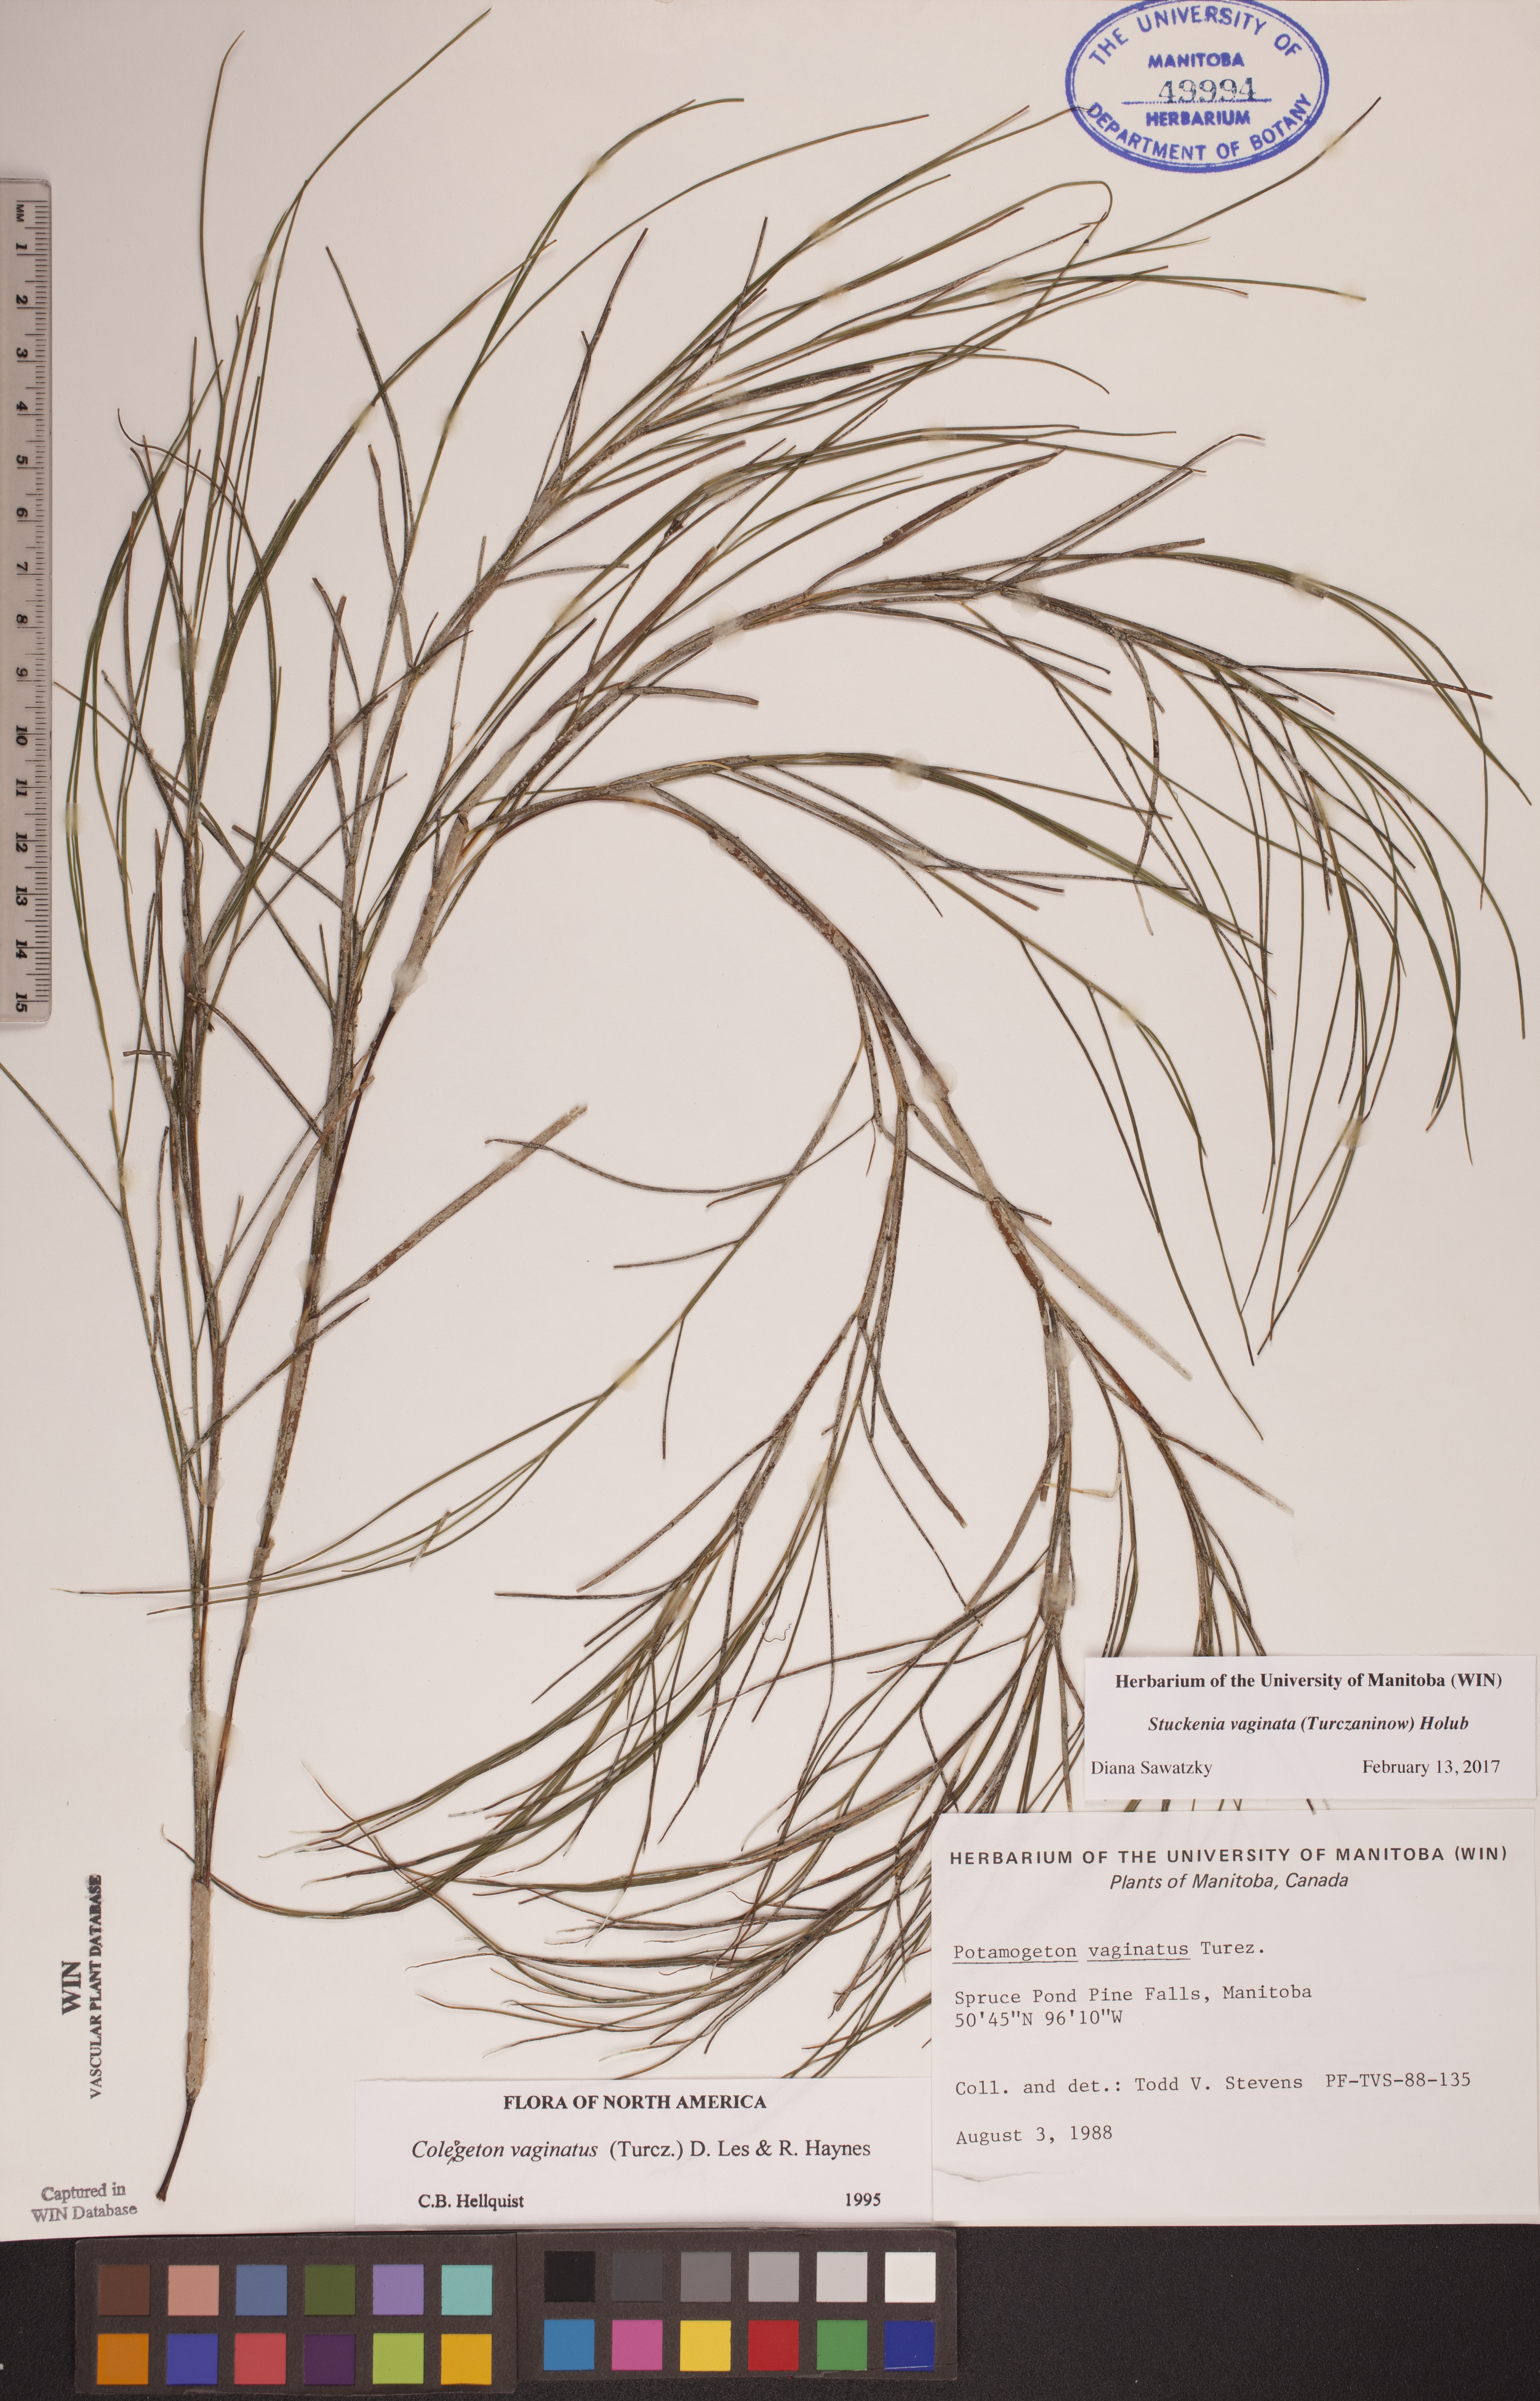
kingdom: Plantae
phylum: Tracheophyta
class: Liliopsida
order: Alismatales
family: Potamogetonaceae
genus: Stuckenia
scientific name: Stuckenia vaginata
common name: Big-sheathed pondweed
